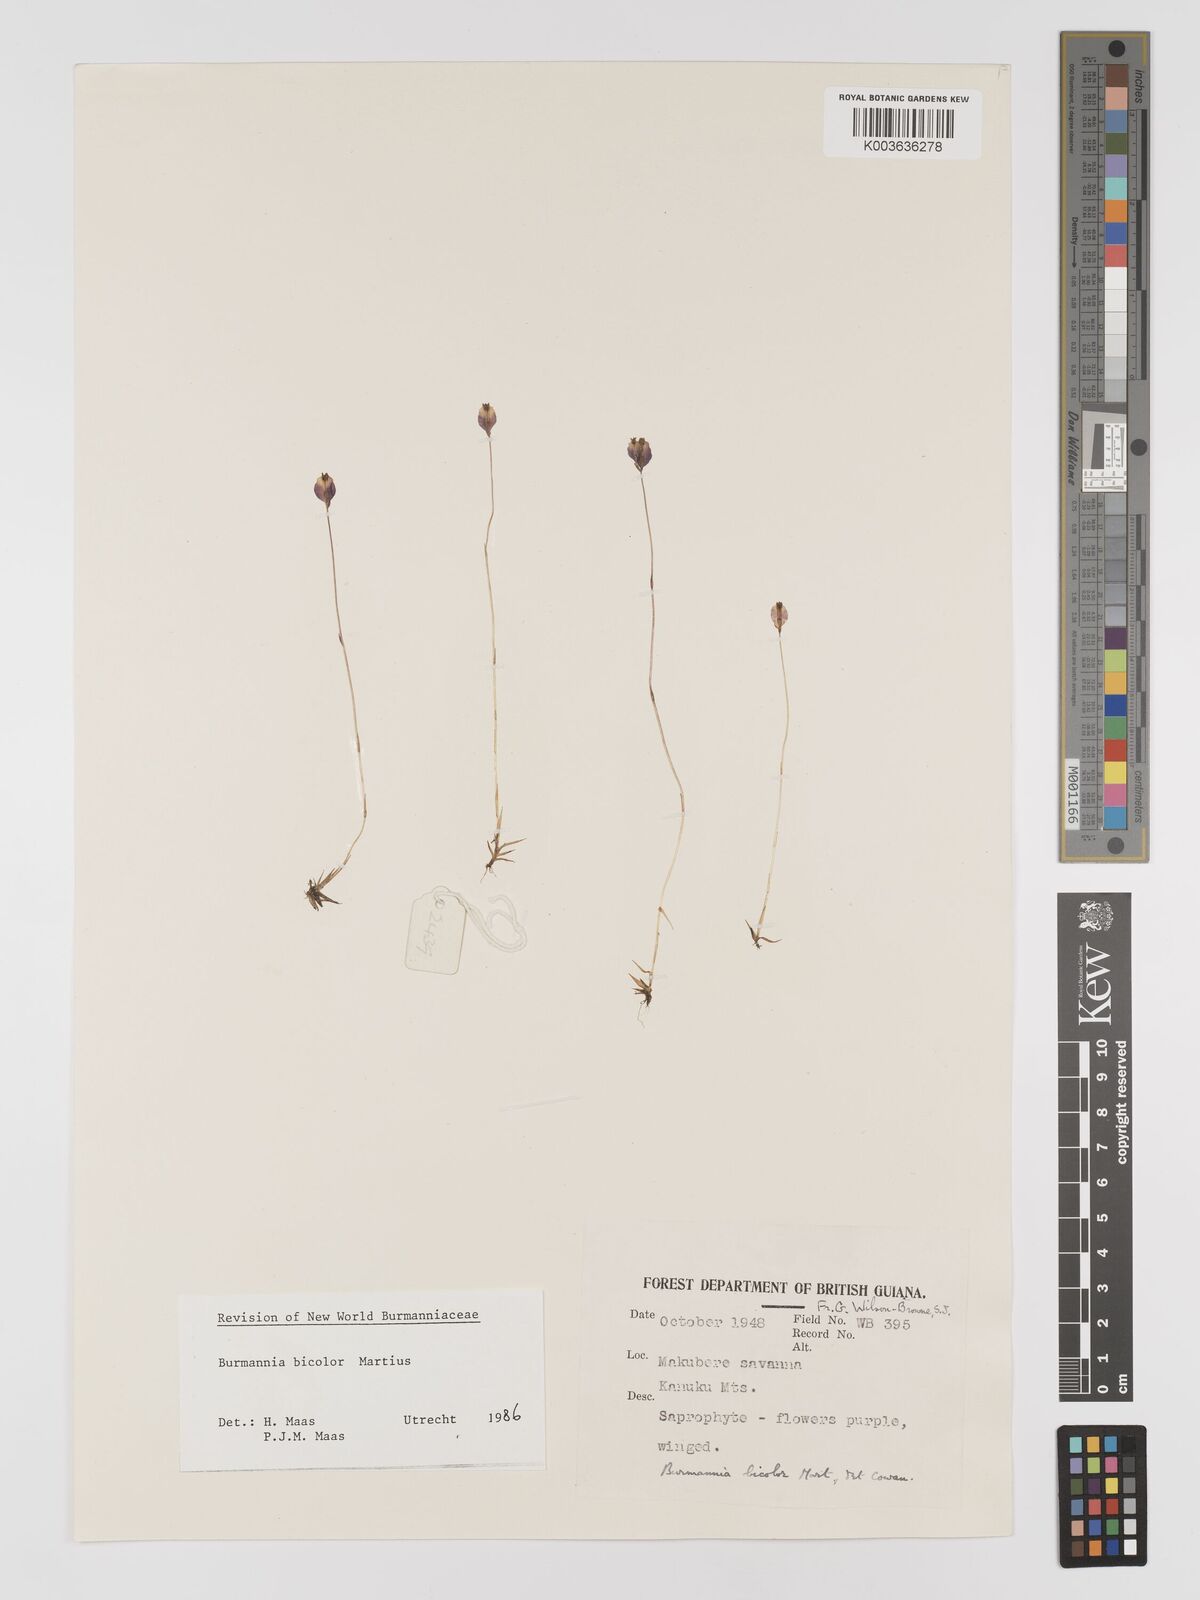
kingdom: Plantae
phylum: Tracheophyta
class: Liliopsida
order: Dioscoreales
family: Burmanniaceae
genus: Burmannia
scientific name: Burmannia bicolor
